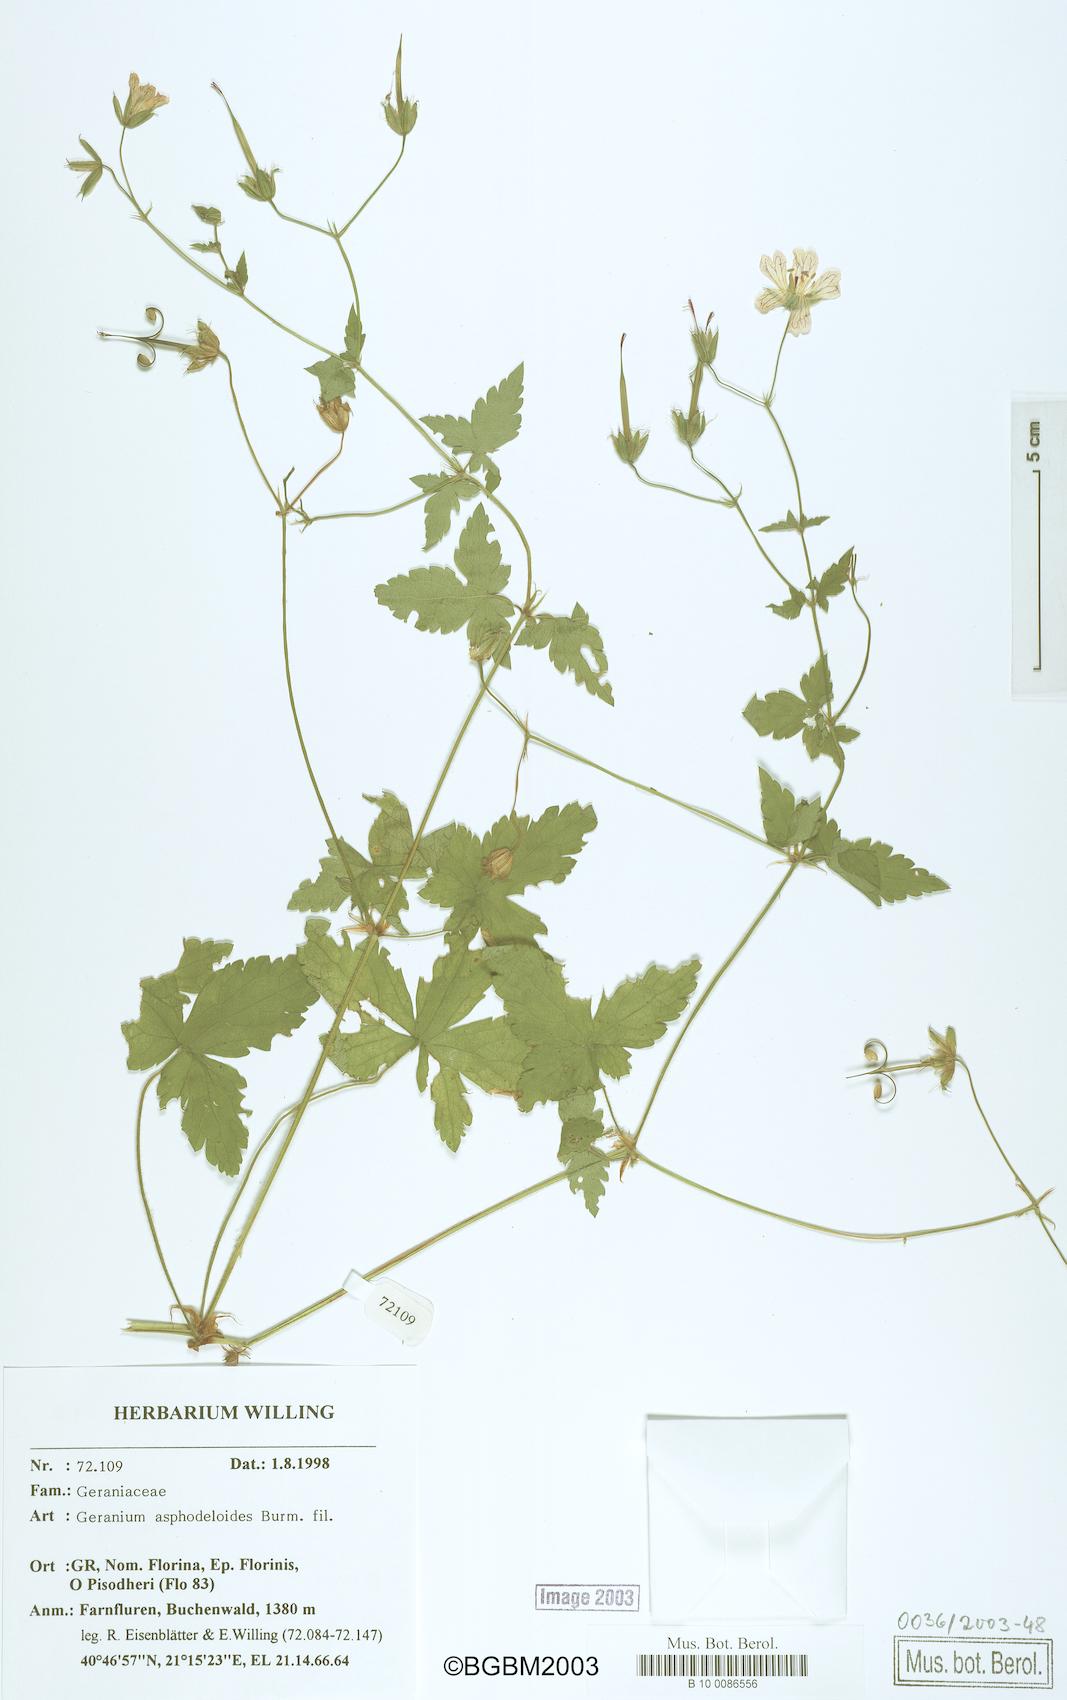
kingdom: Plantae
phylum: Tracheophyta
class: Magnoliopsida
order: Geraniales
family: Geraniaceae
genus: Geranium
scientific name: Geranium asphodeloides
